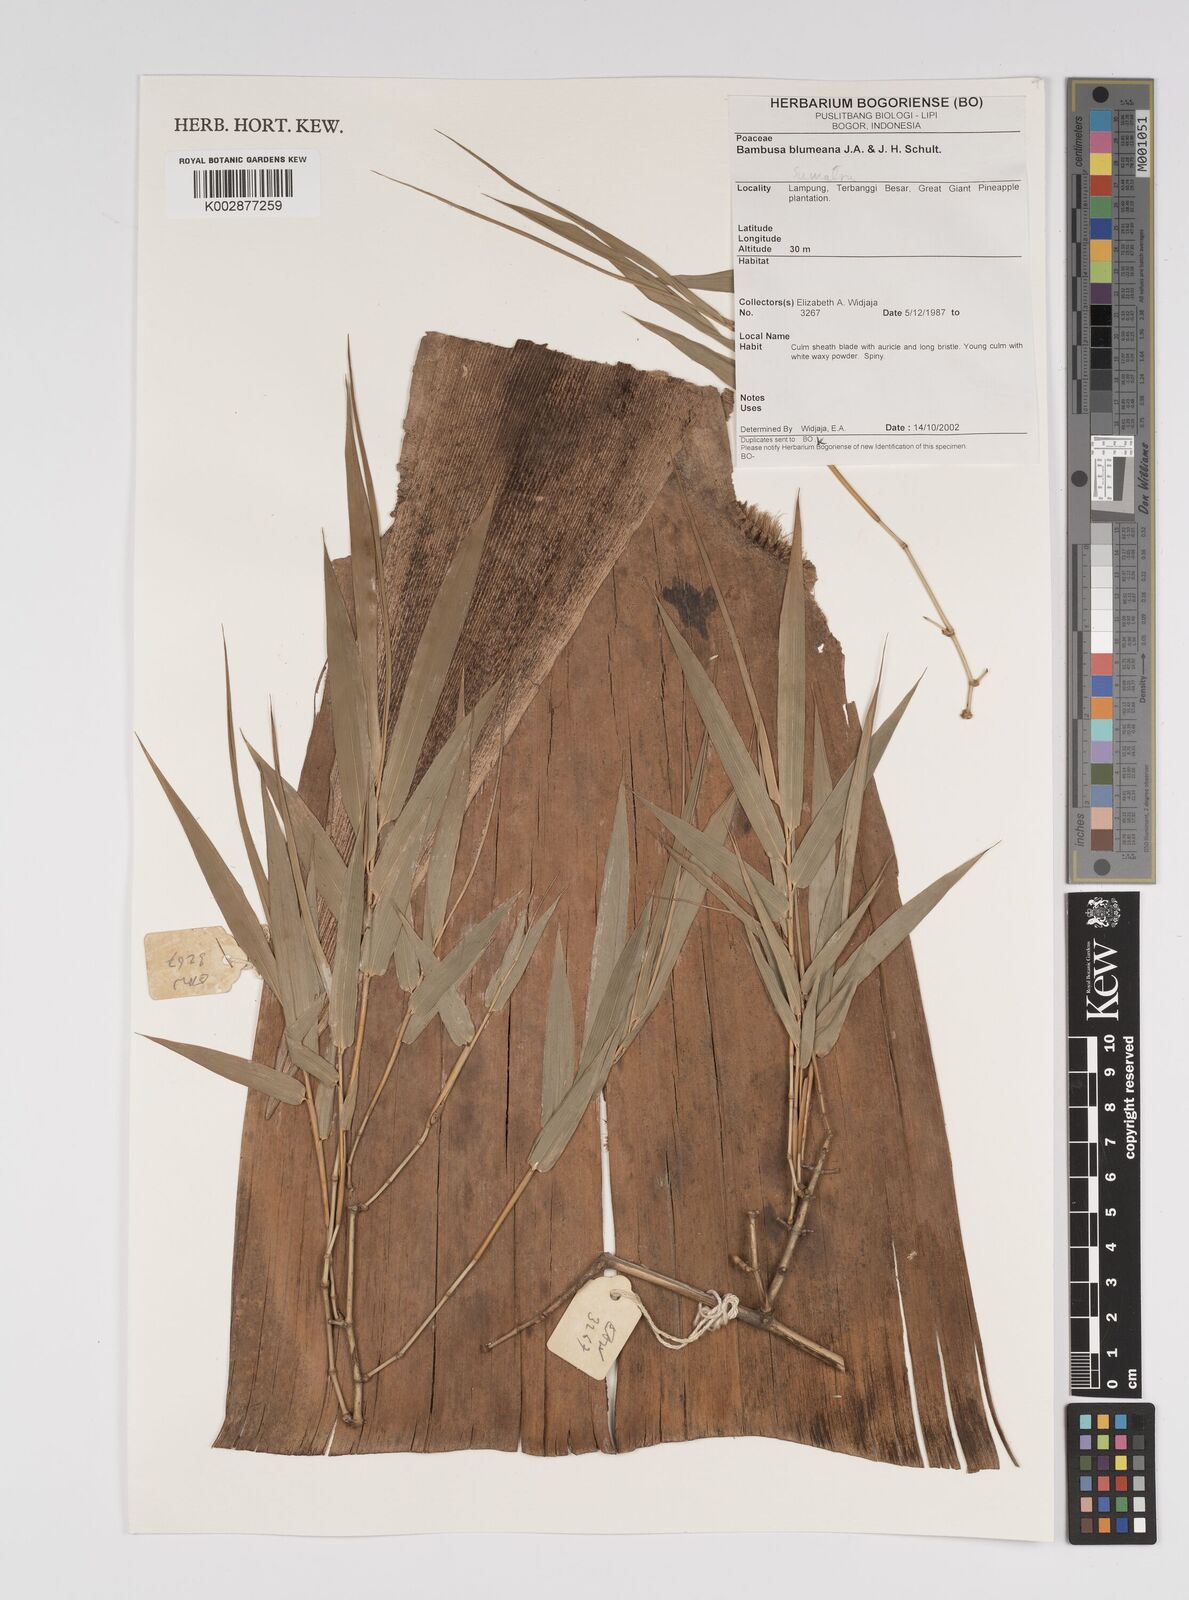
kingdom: Plantae
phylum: Tracheophyta
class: Liliopsida
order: Poales
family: Poaceae
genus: Bambusa
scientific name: Bambusa spinosa
